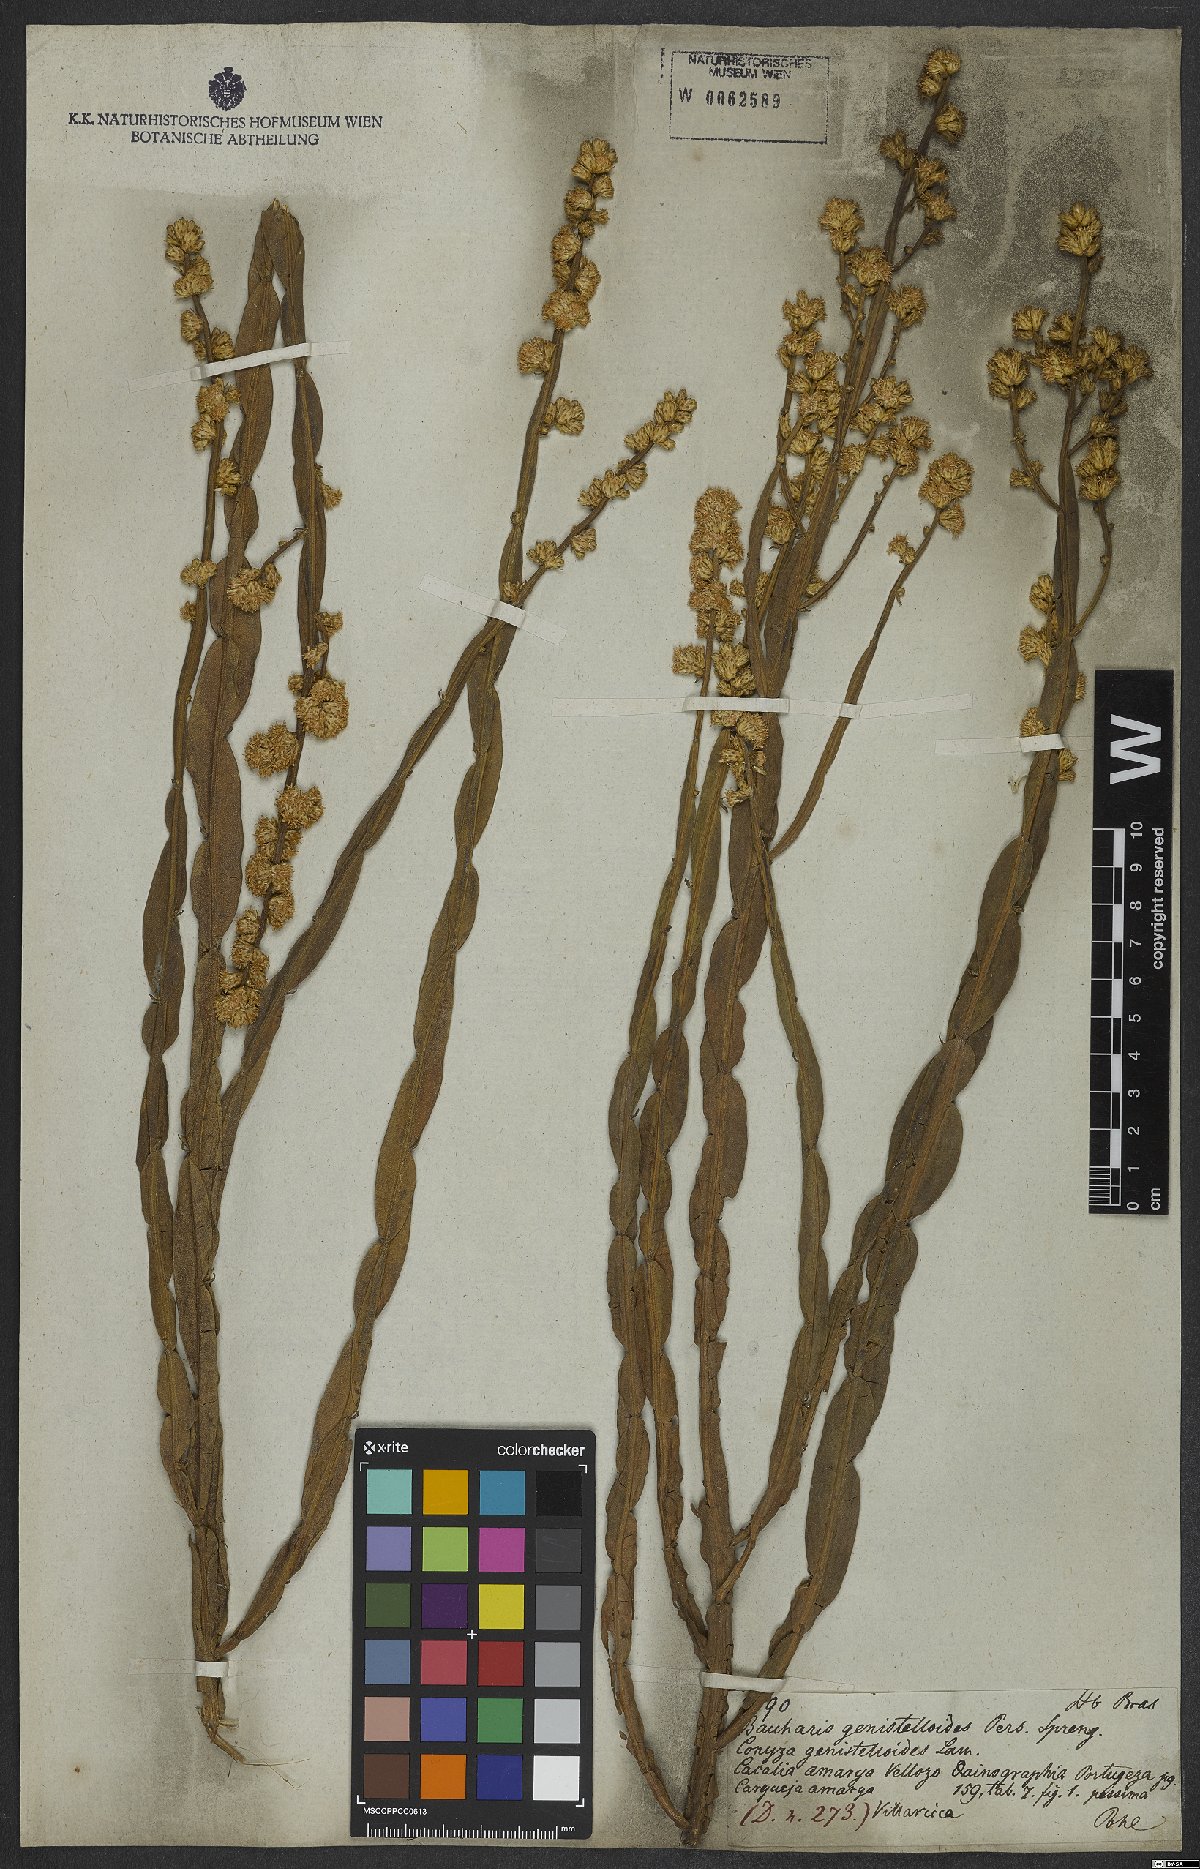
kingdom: Plantae
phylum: Tracheophyta
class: Magnoliopsida
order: Asterales
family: Asteraceae
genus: Baccharis
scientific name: Baccharis genistelloides
